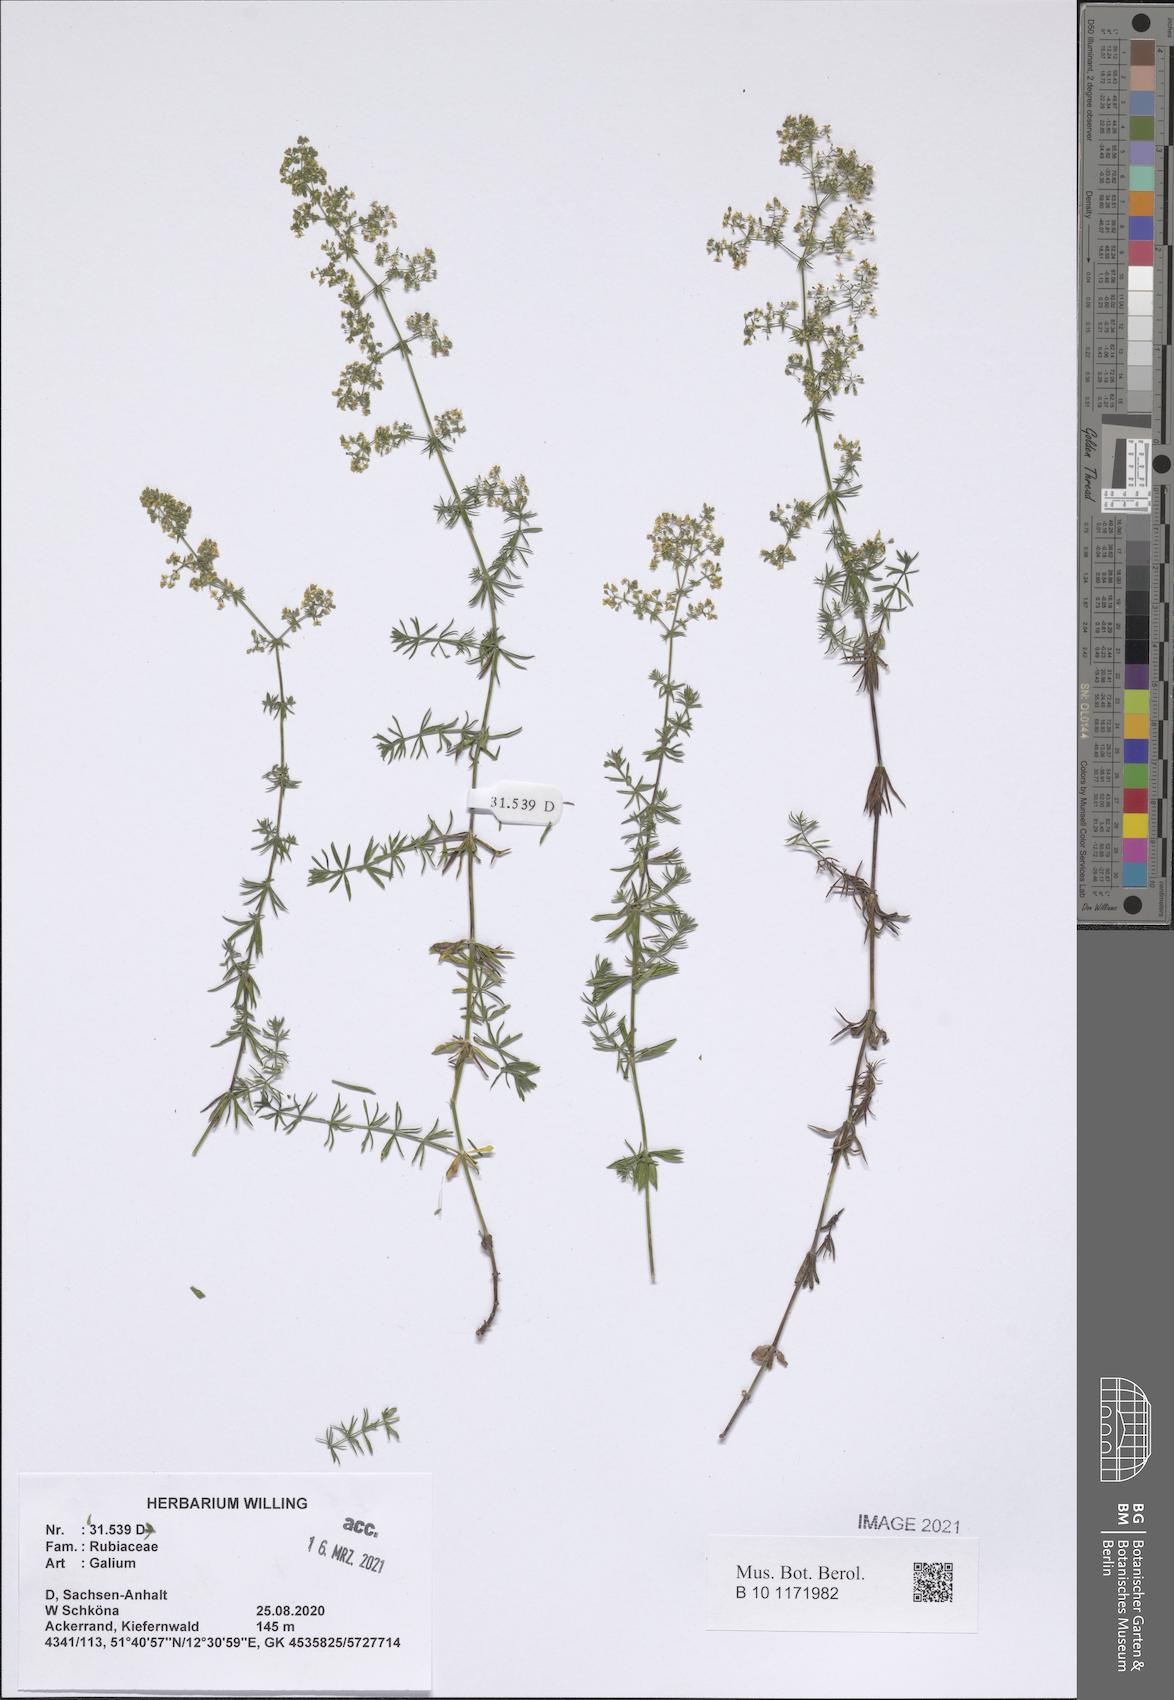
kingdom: Plantae
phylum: Tracheophyta
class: Magnoliopsida
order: Gentianales
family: Rubiaceae
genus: Galium
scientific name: Galium pomeranicum
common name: Bedstraw
